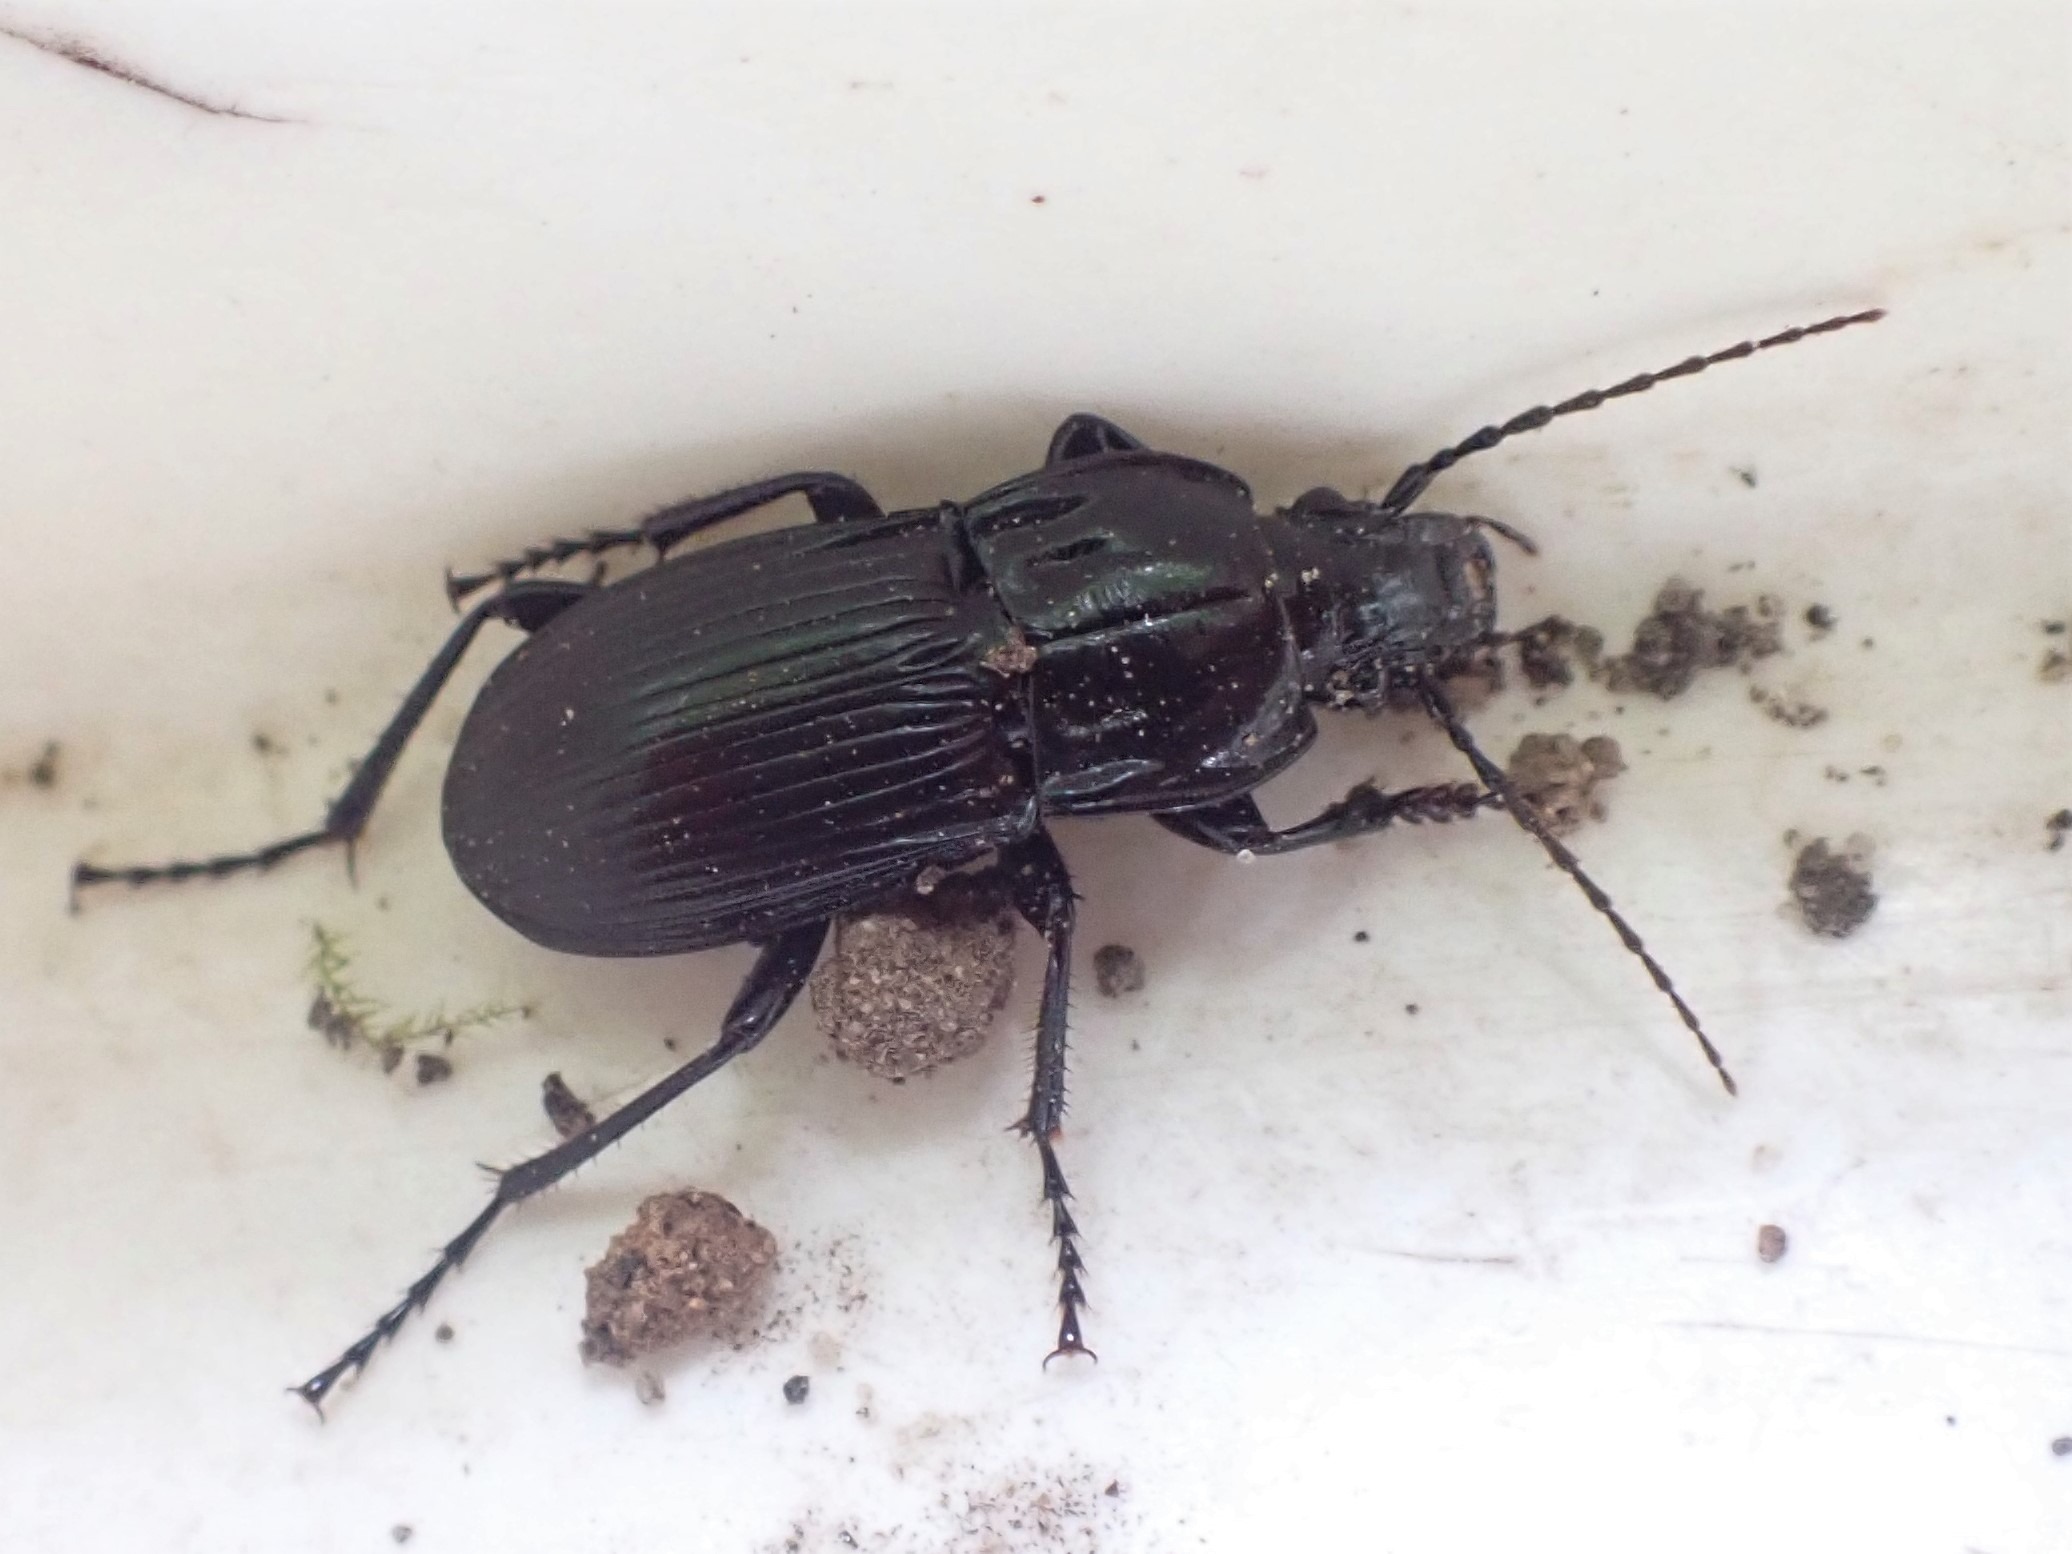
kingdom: Animalia
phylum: Arthropoda
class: Insecta
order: Coleoptera
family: Carabidae
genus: Abax
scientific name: Abax parallelepipedus
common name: Bred muldløber
